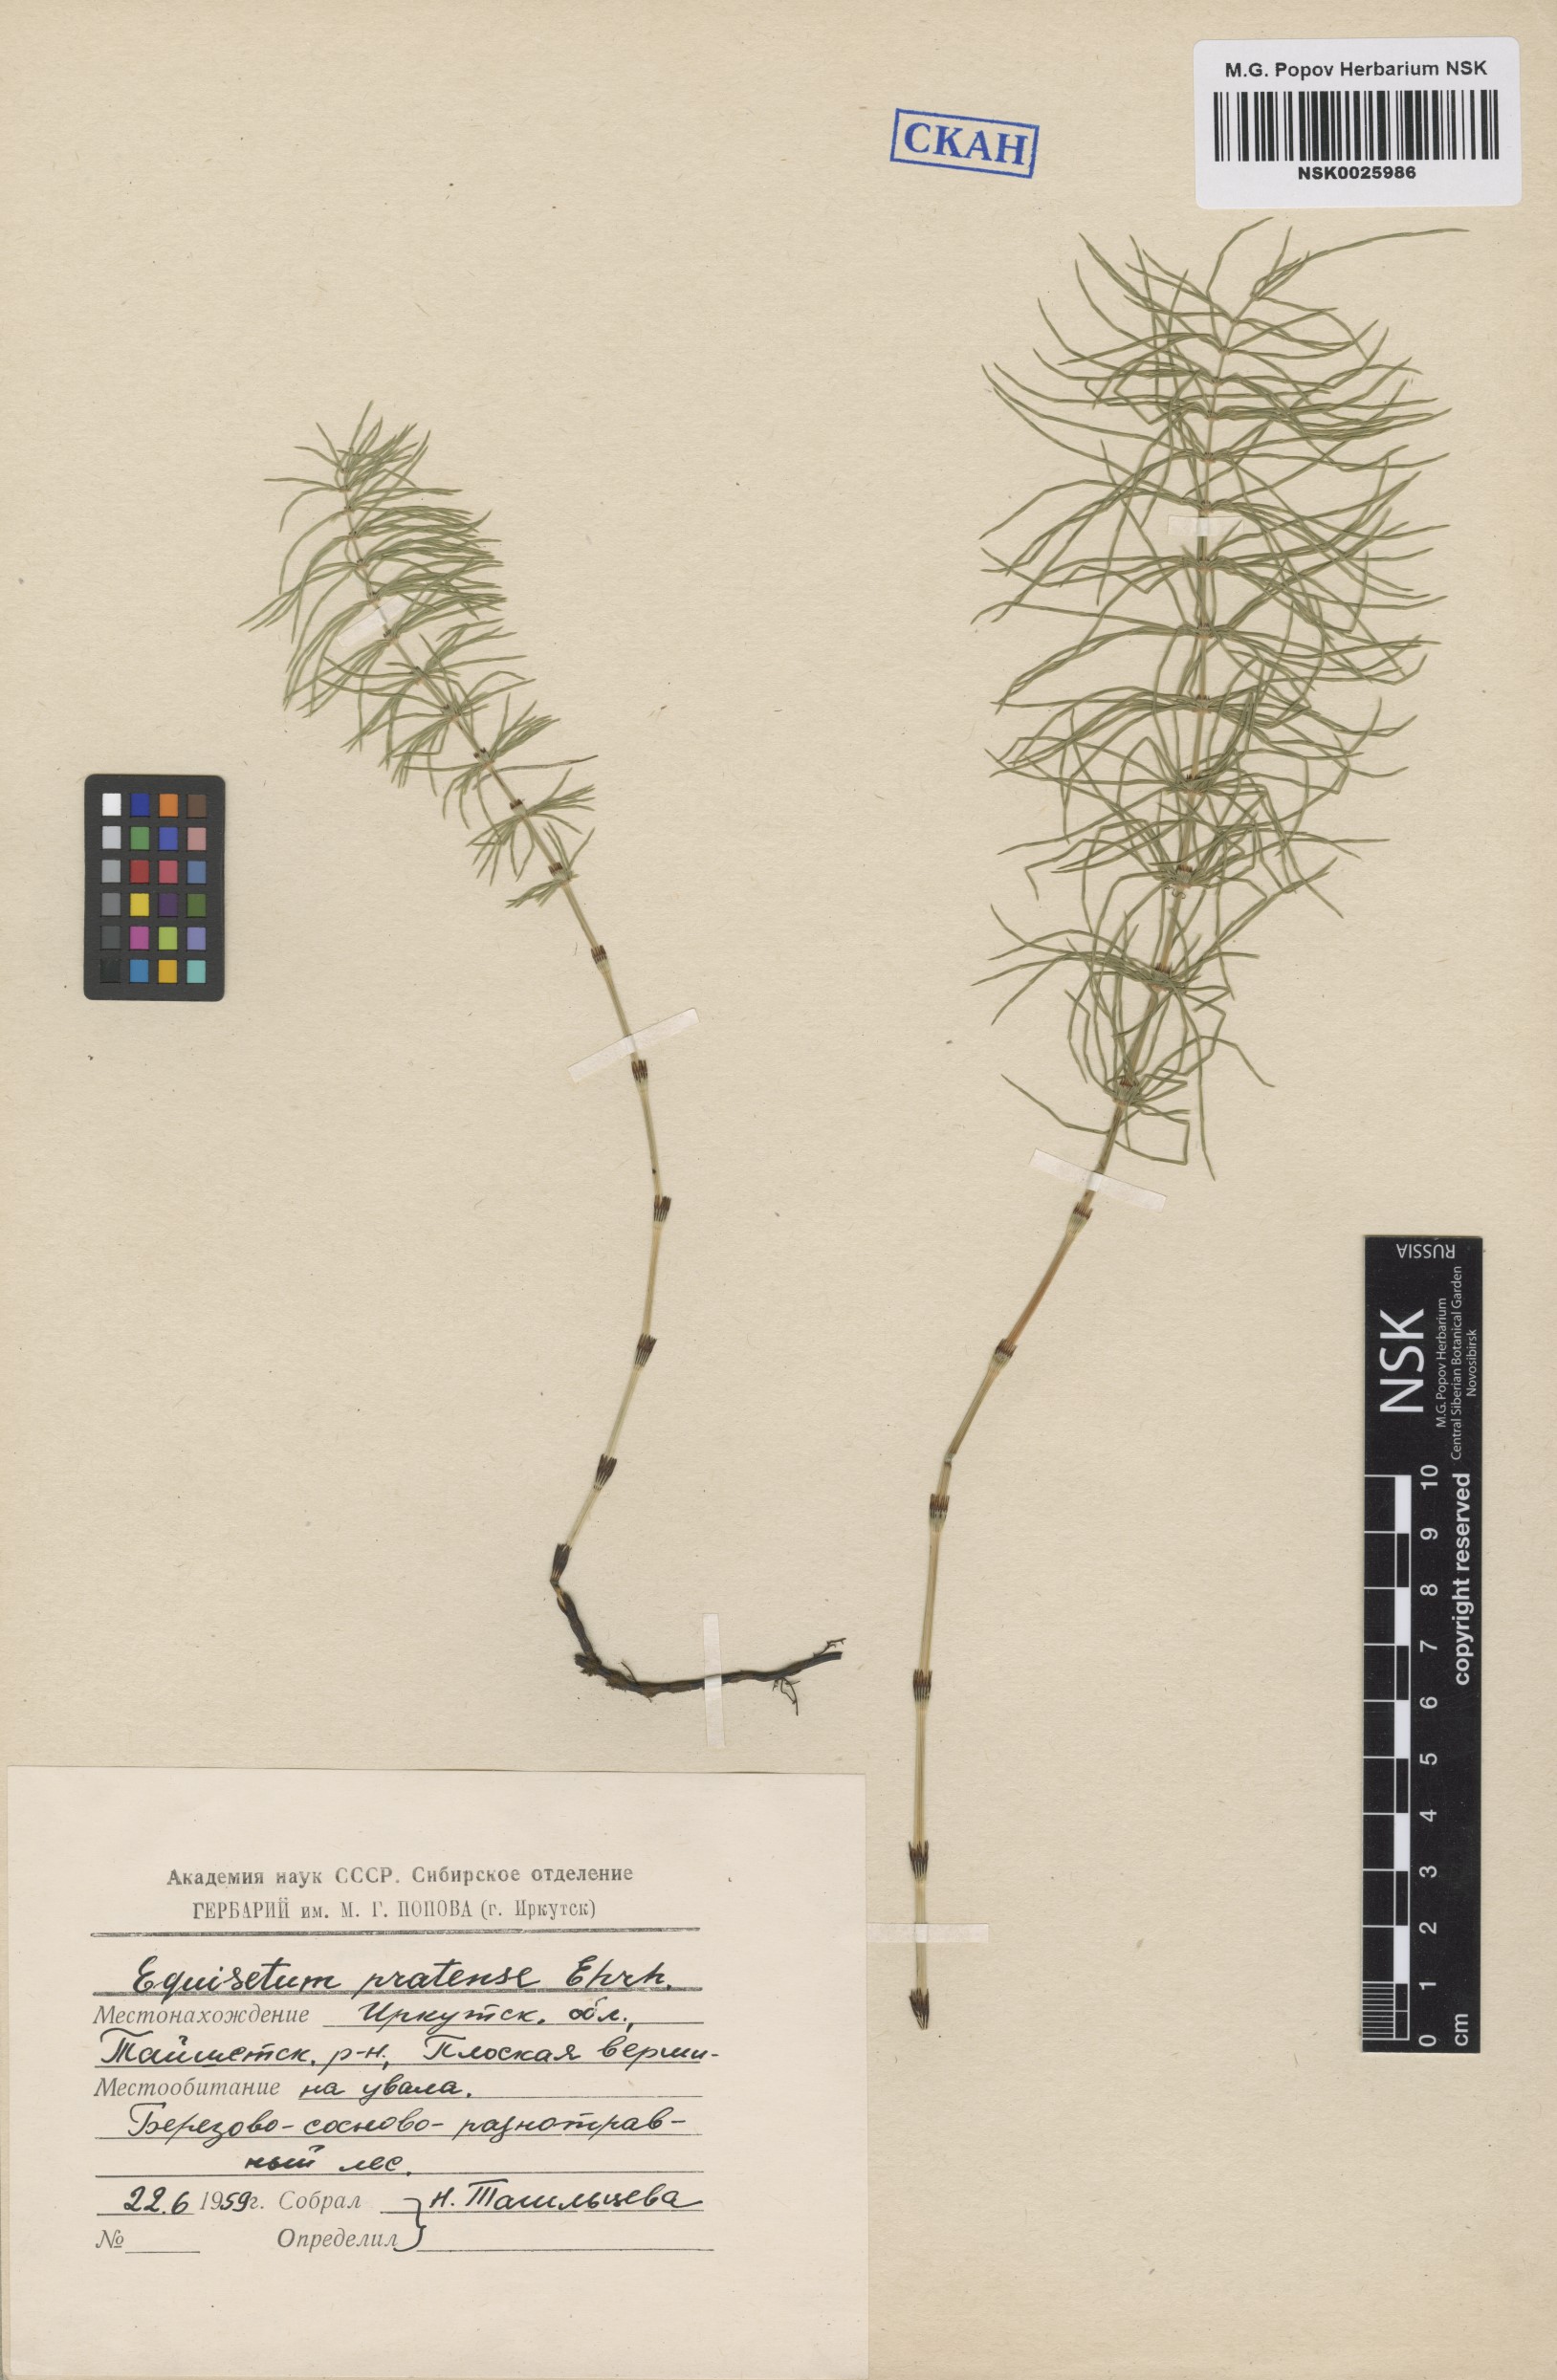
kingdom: Plantae
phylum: Tracheophyta
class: Polypodiopsida
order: Equisetales
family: Equisetaceae
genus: Equisetum
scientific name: Equisetum pratense
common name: Meadow horsetail
